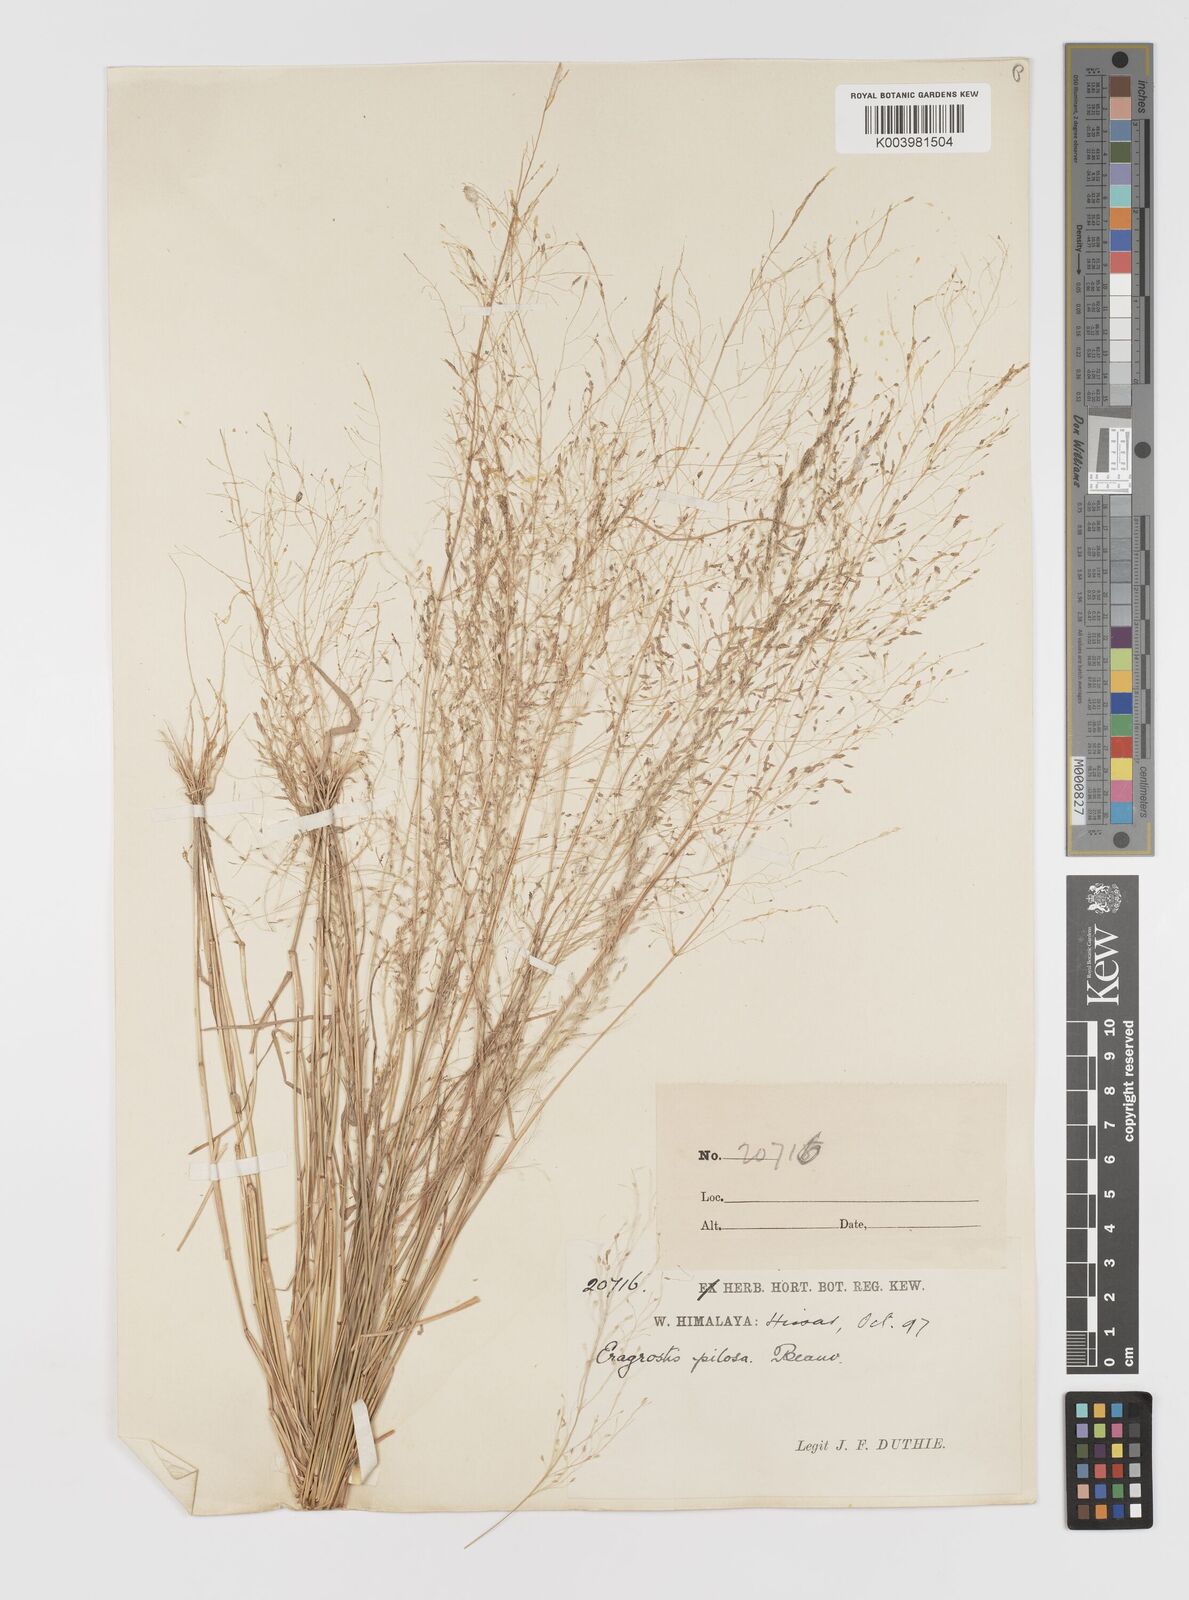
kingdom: Plantae
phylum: Tracheophyta
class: Liliopsida
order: Poales
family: Poaceae
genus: Eragrostis
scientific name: Eragrostis pilosa
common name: Indian lovegrass
